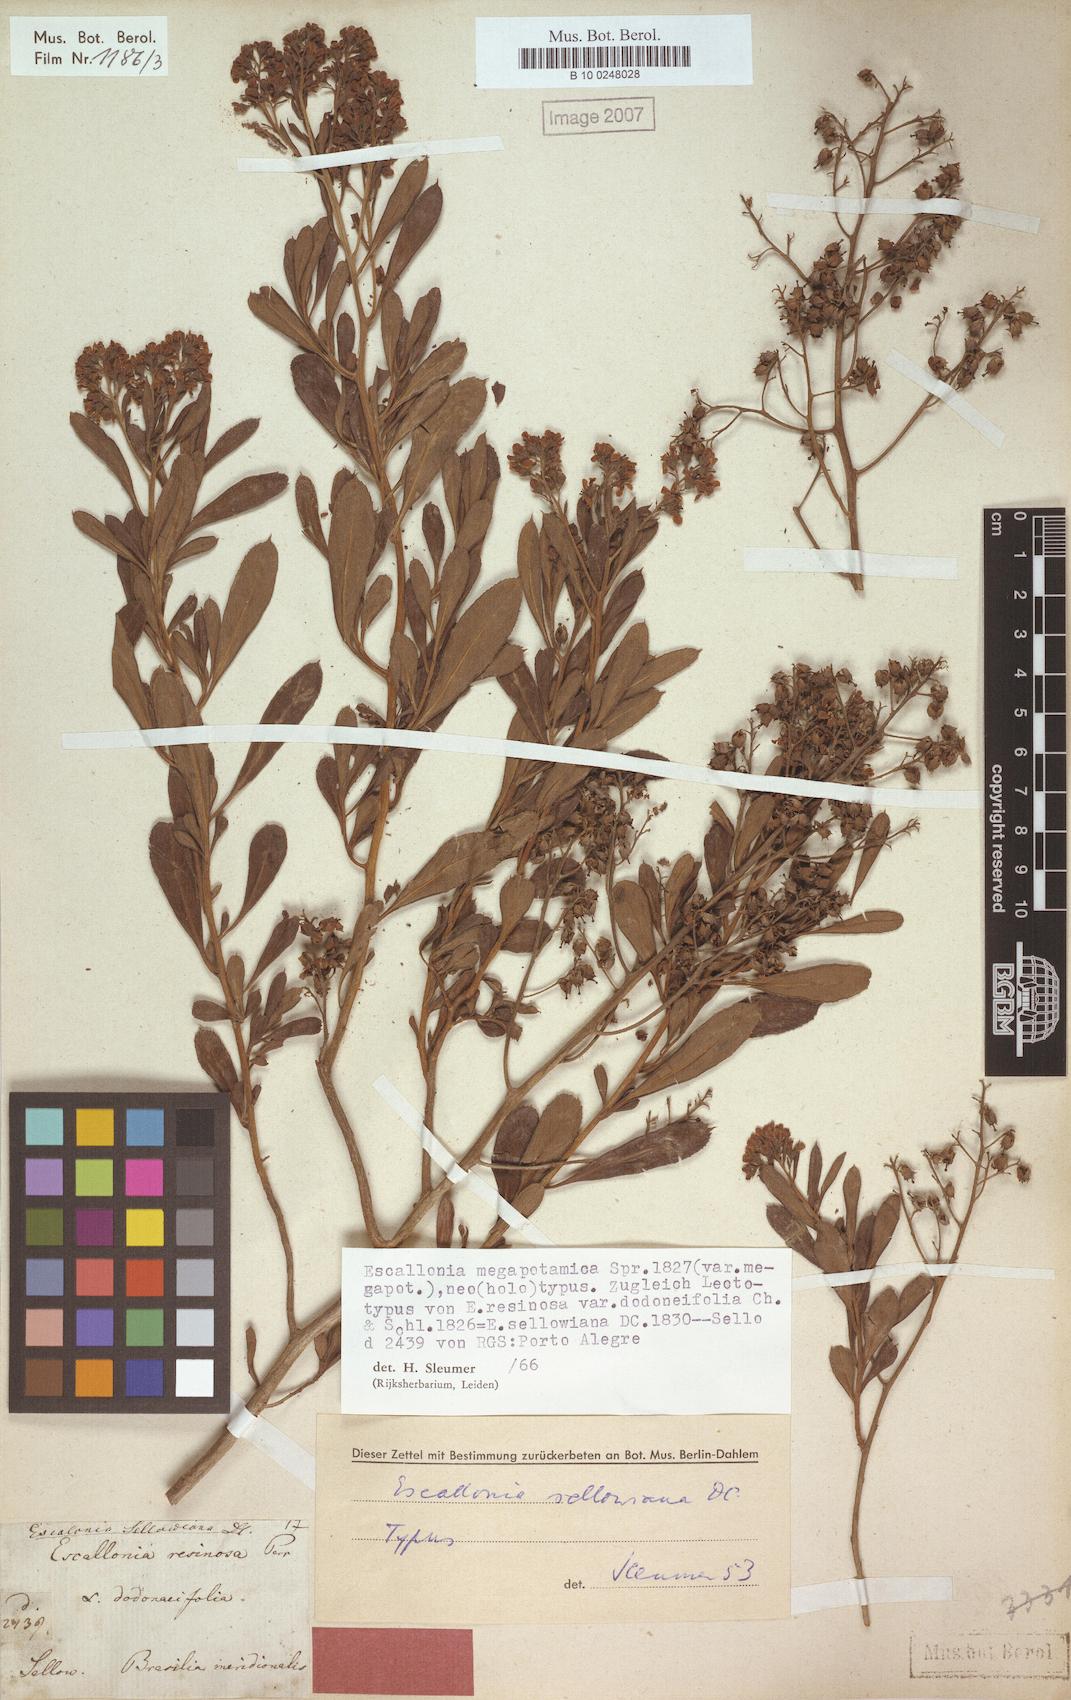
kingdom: Plantae
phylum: Tracheophyta
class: Magnoliopsida
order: Escalloniales
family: Escalloniaceae
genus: Escallonia
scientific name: Escallonia megapotamica
